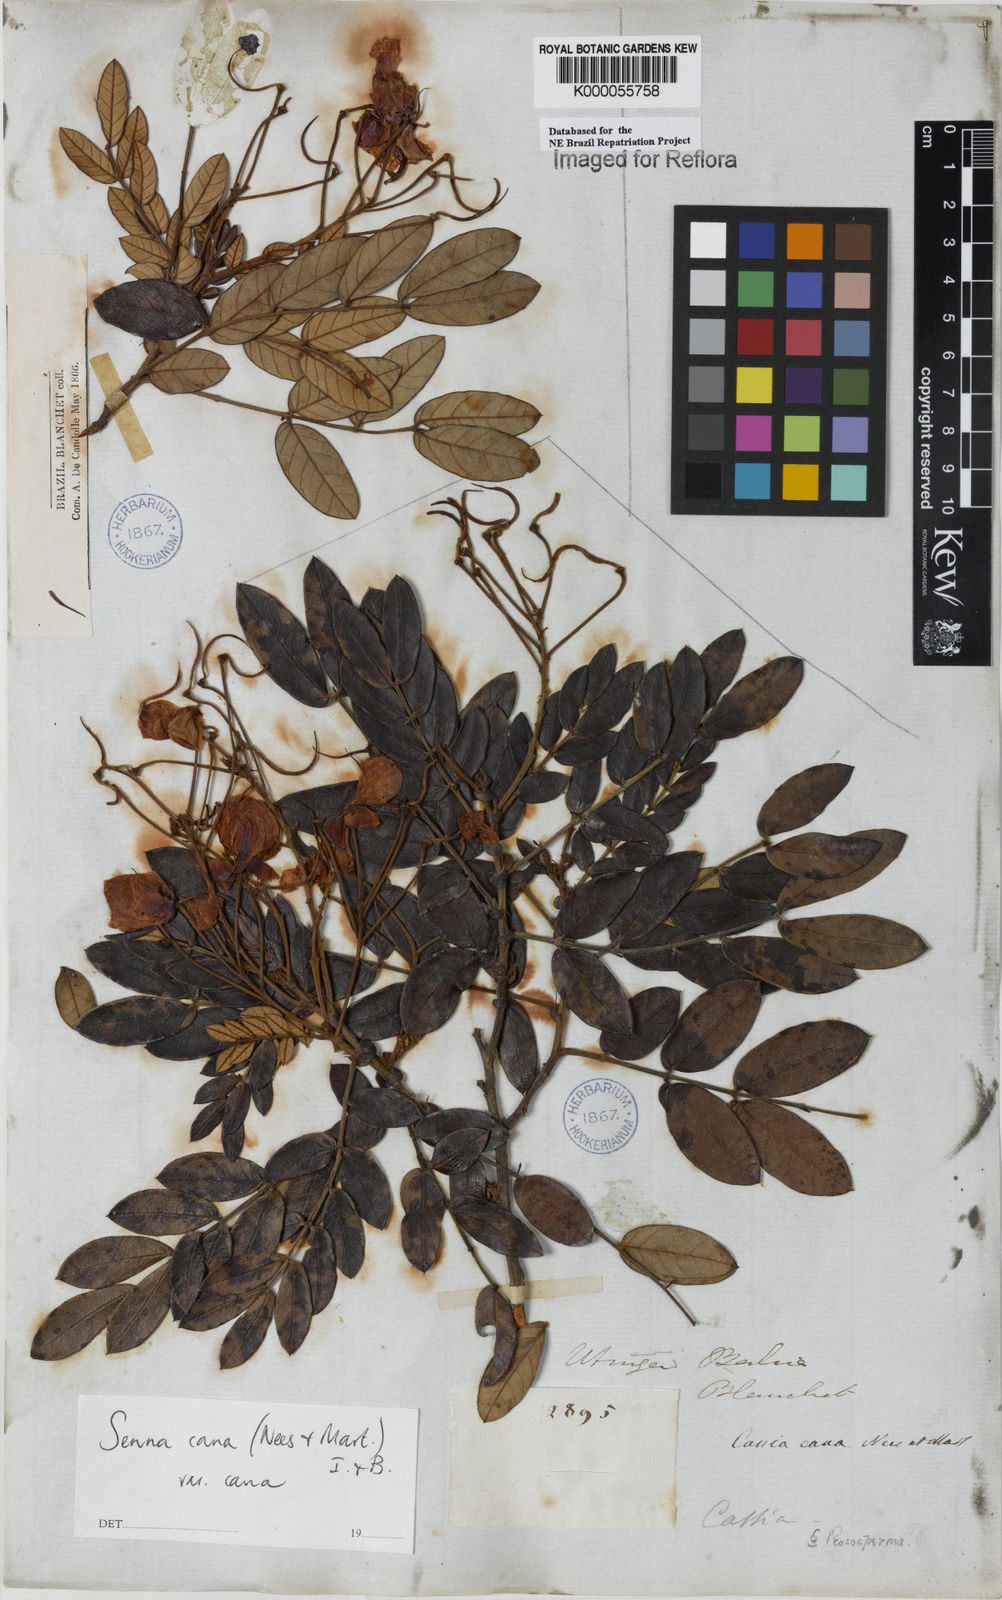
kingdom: Plantae
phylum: Tracheophyta
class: Magnoliopsida
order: Fabales
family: Fabaceae
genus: Senna
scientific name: Senna cana
